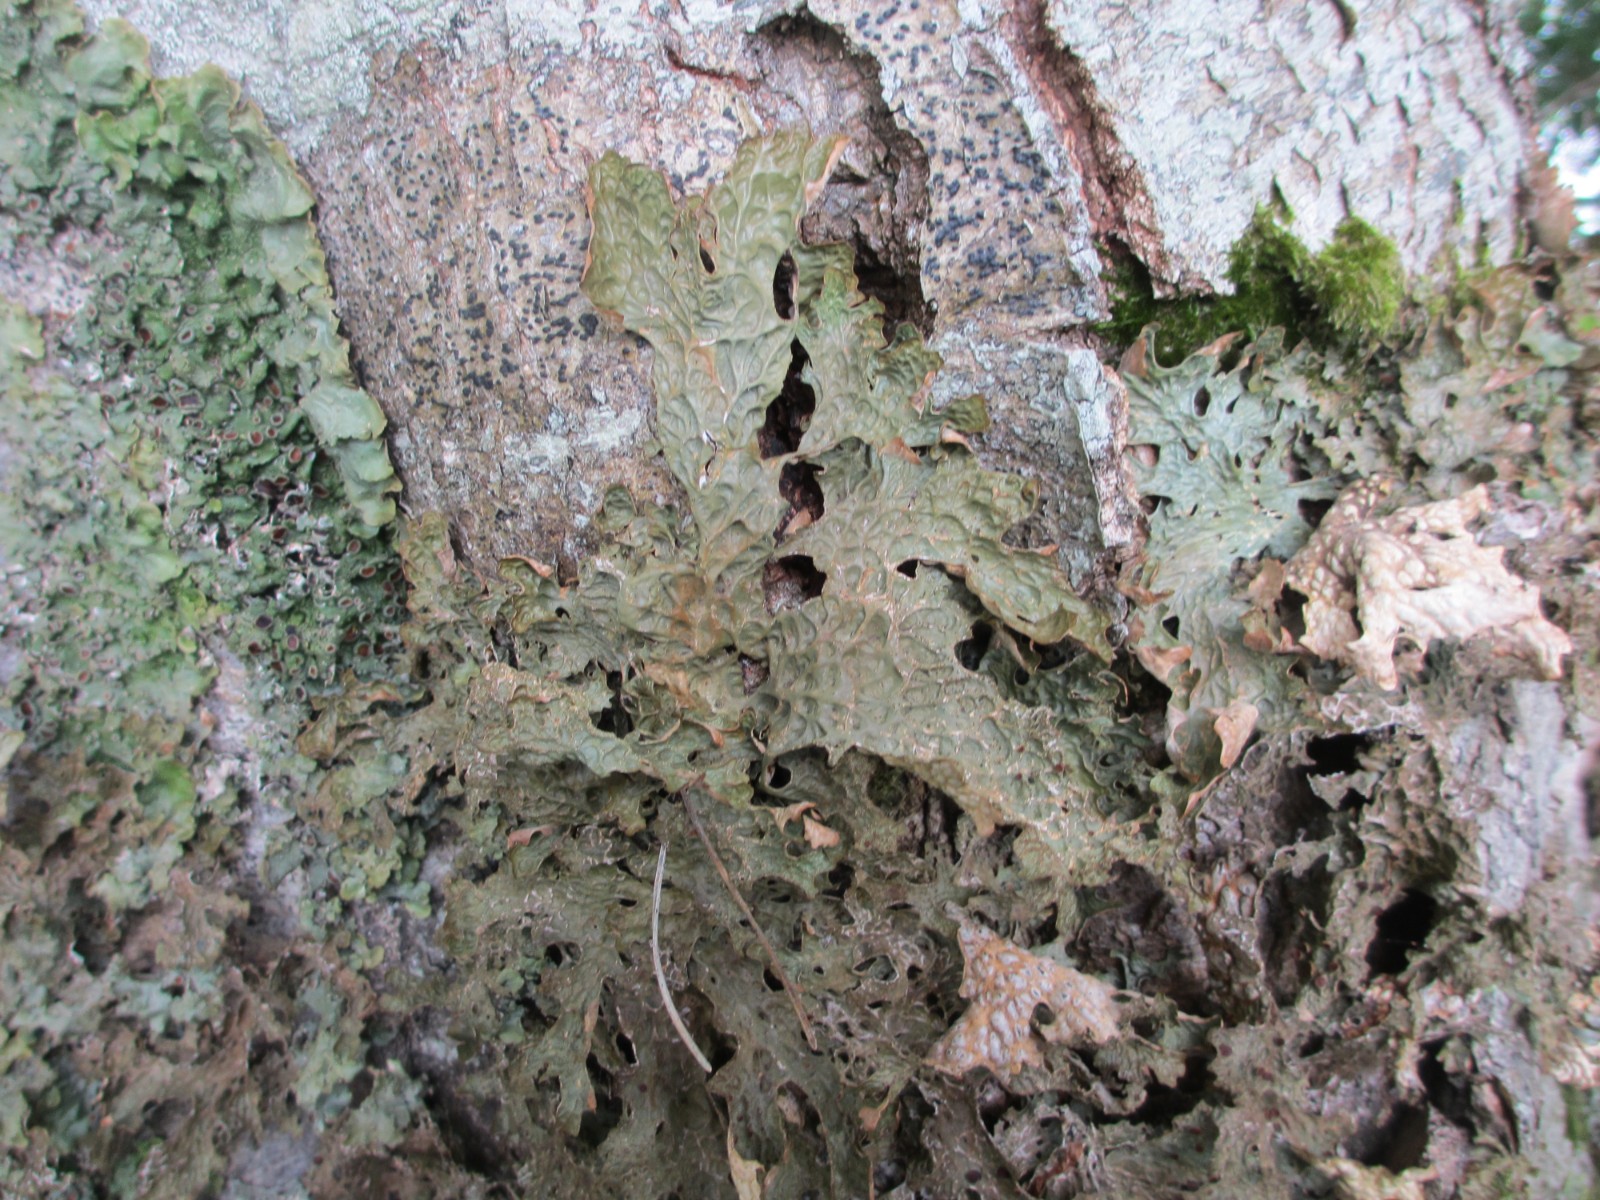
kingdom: Fungi
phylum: Ascomycota
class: Lecanoromycetes
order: Peltigerales
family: Lobariaceae
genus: Lobaria
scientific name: Lobaria pulmonaria
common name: almindelig lungelav
